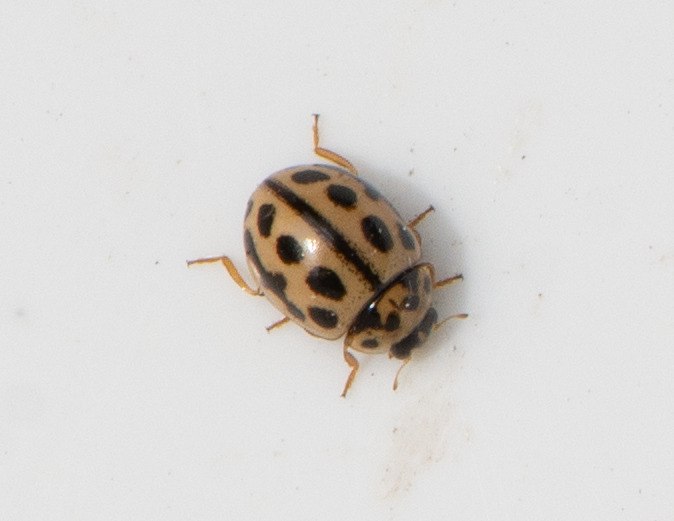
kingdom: Animalia
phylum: Arthropoda
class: Insecta
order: Coleoptera
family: Coccinellidae
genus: Tytthaspis
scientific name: Tytthaspis sedecimpunctata
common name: Sekstenprikket mariehøne
